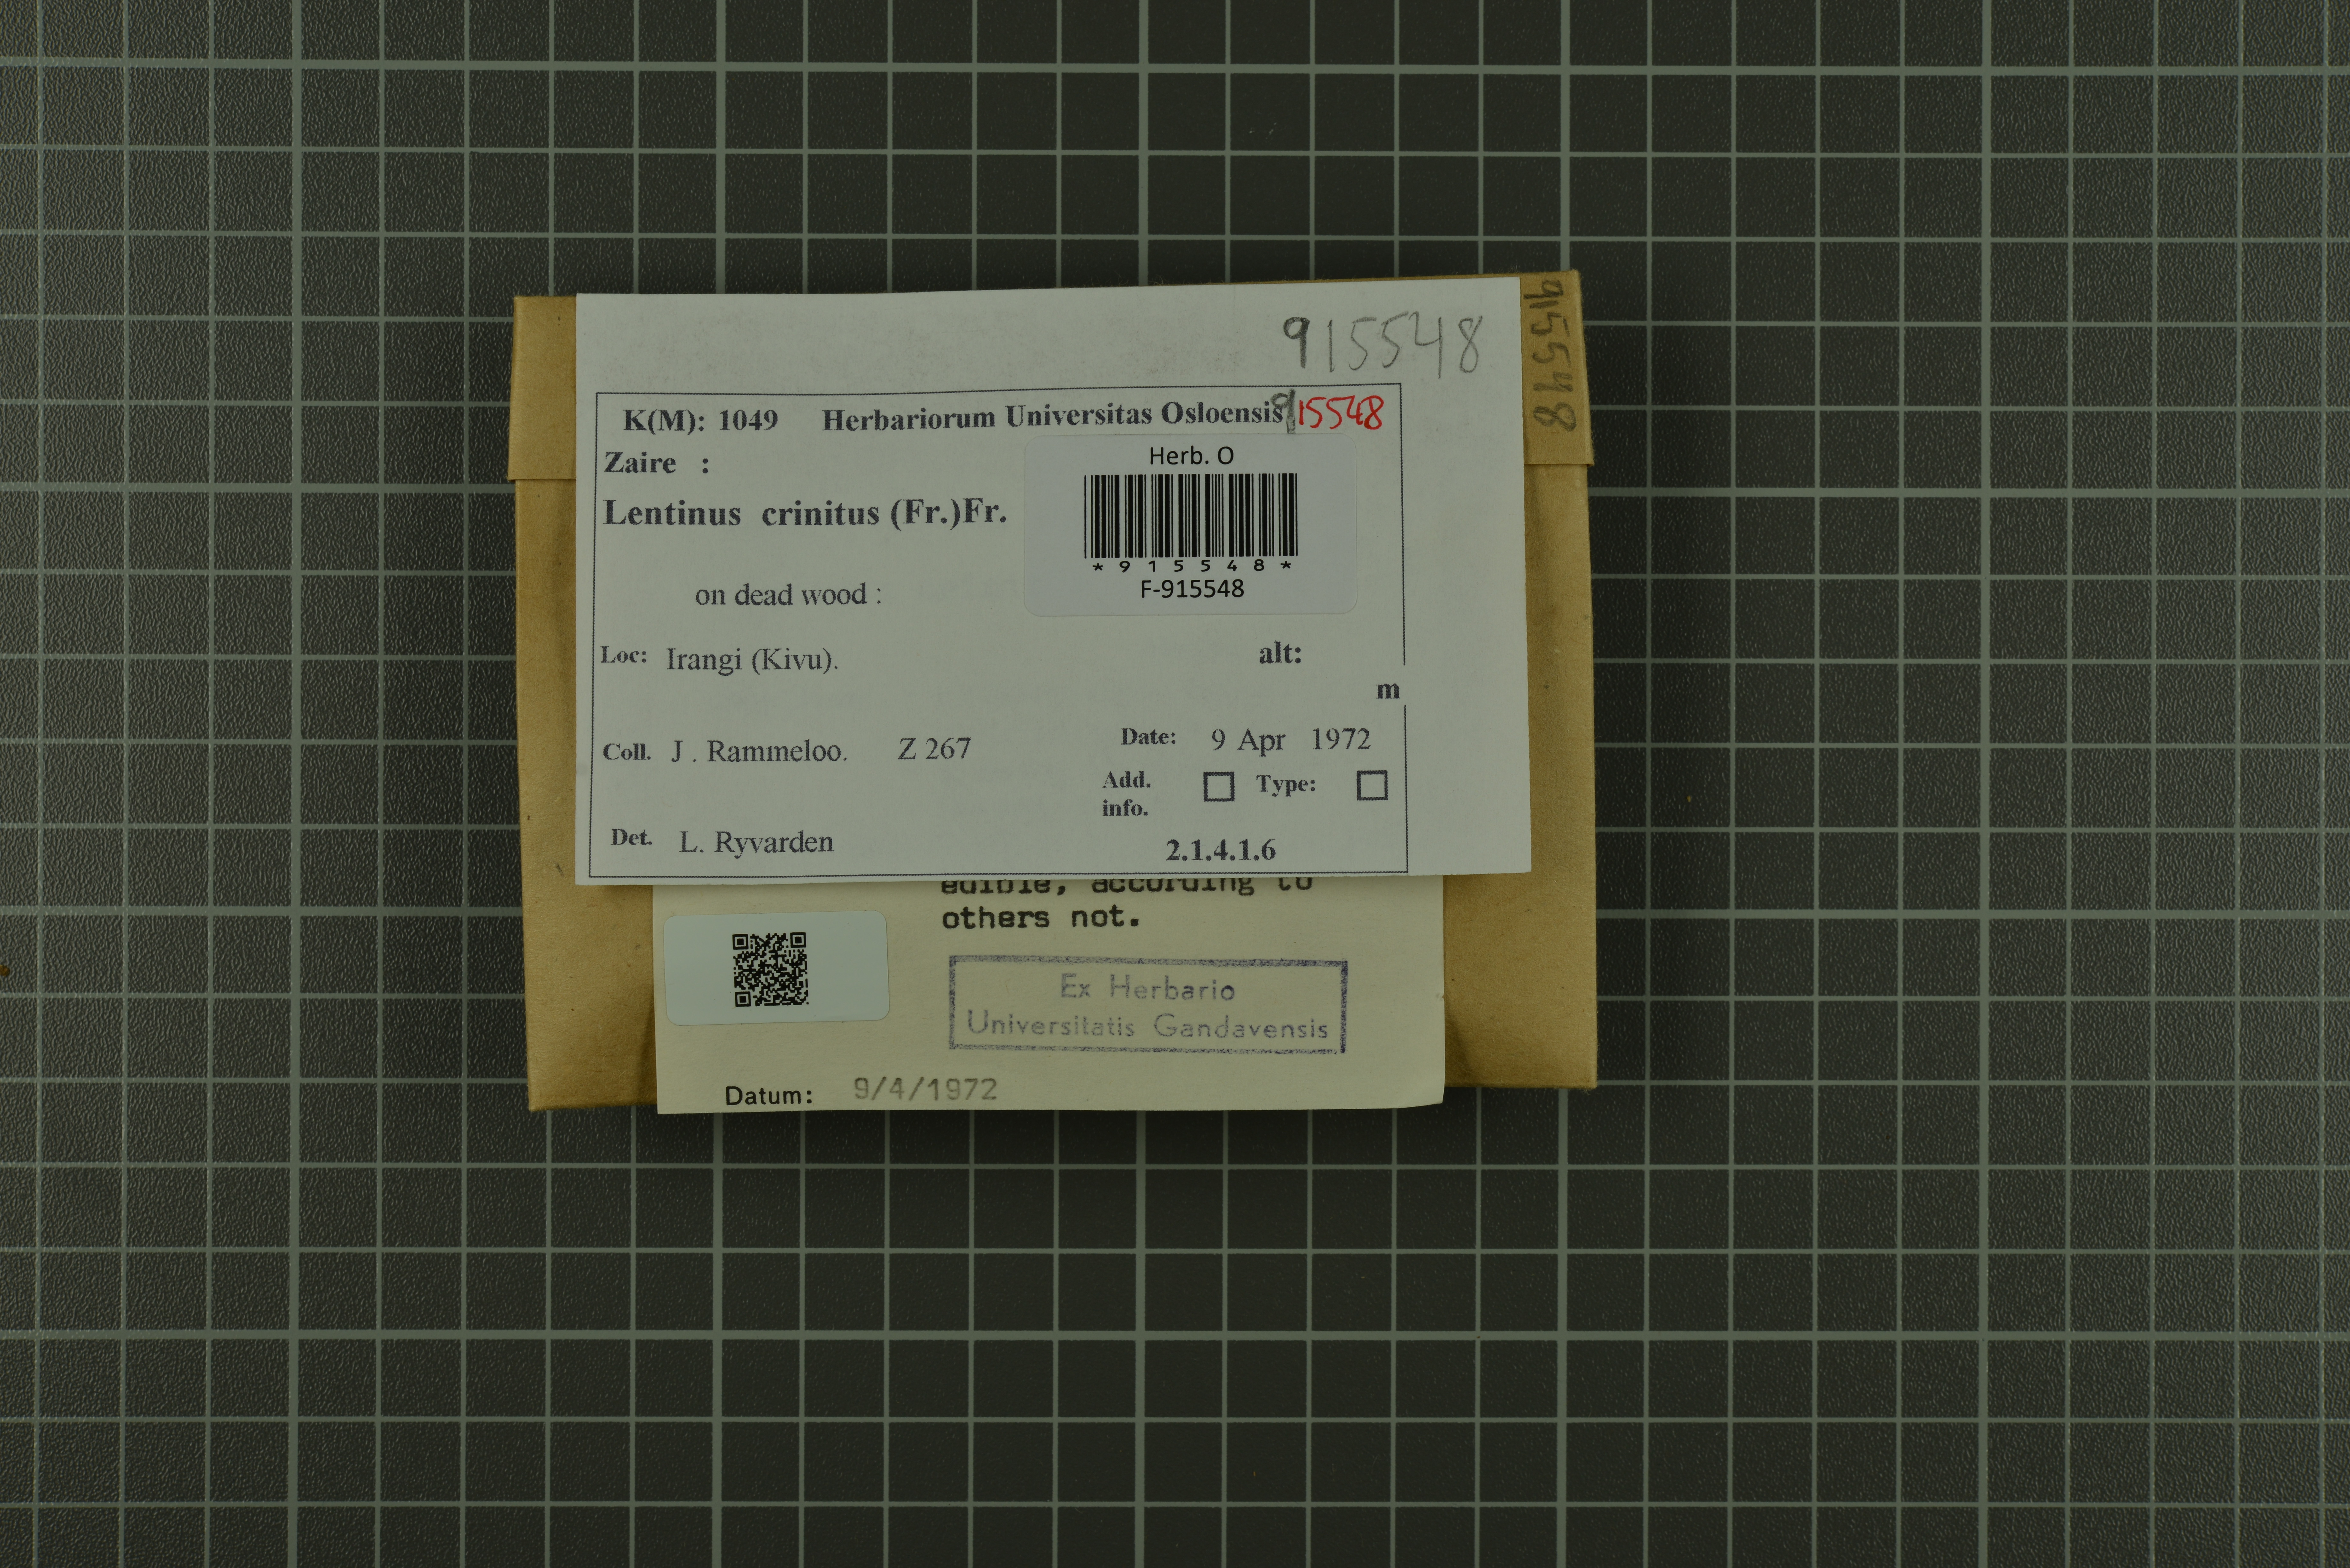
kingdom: Fungi
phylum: Basidiomycota
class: Agaricomycetes
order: Polyporales
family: Polyporaceae
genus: Lentinus
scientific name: Lentinus crinitus
